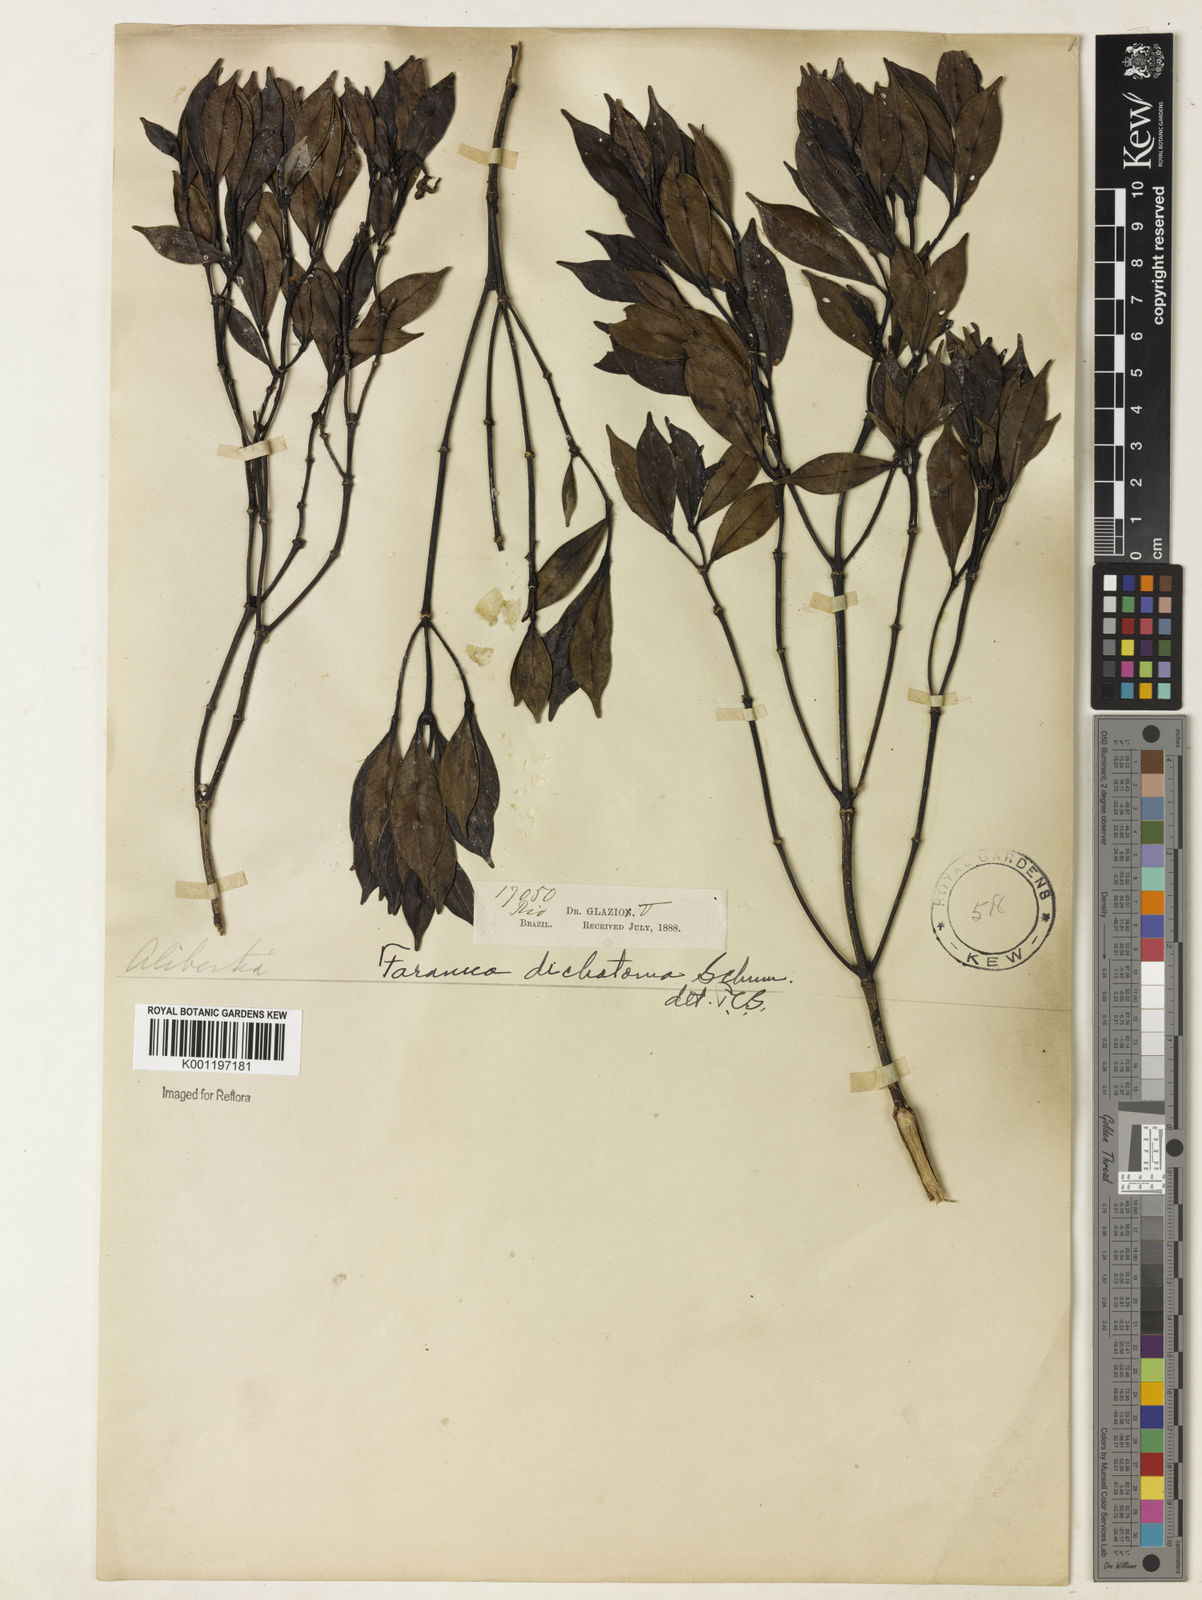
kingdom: Plantae
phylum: Tracheophyta
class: Magnoliopsida
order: Gentianales
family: Rubiaceae
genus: Faramea
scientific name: Faramea dichotoma
